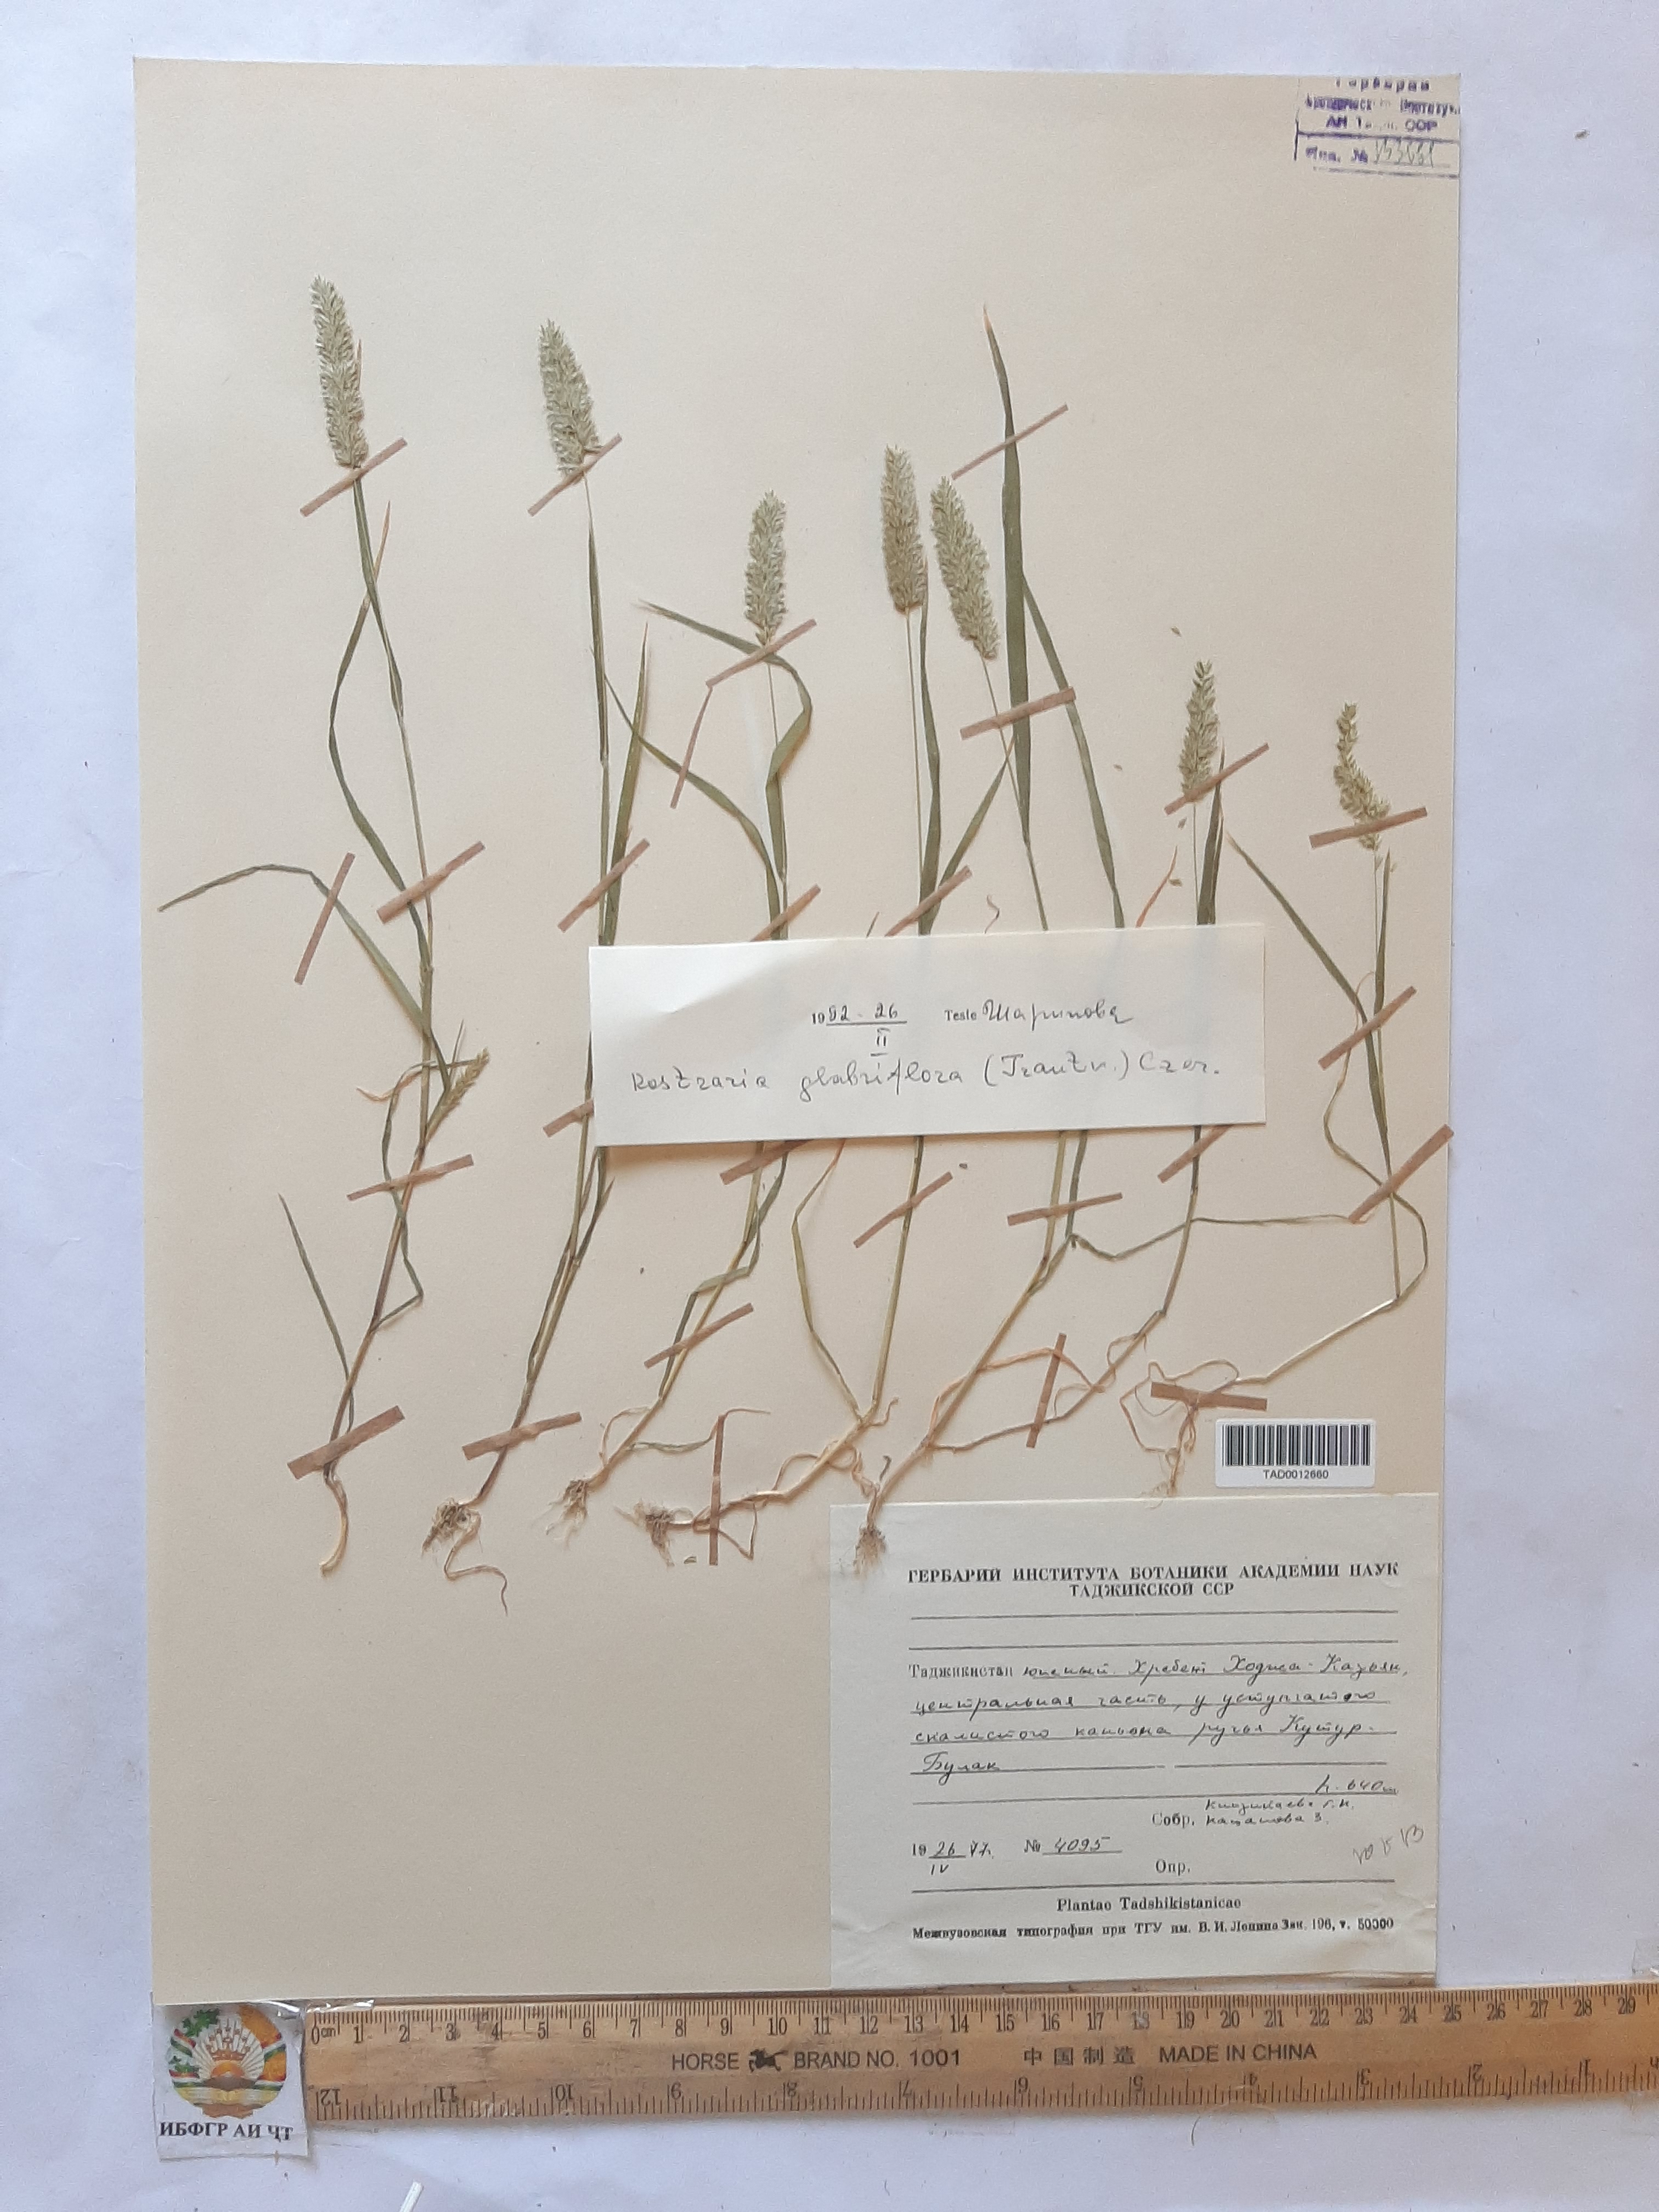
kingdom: Plantae
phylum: Tracheophyta
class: Liliopsida
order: Poales
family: Poaceae
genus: Rostraria
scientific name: Rostraria cristata
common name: Mediterranean hair-grass
